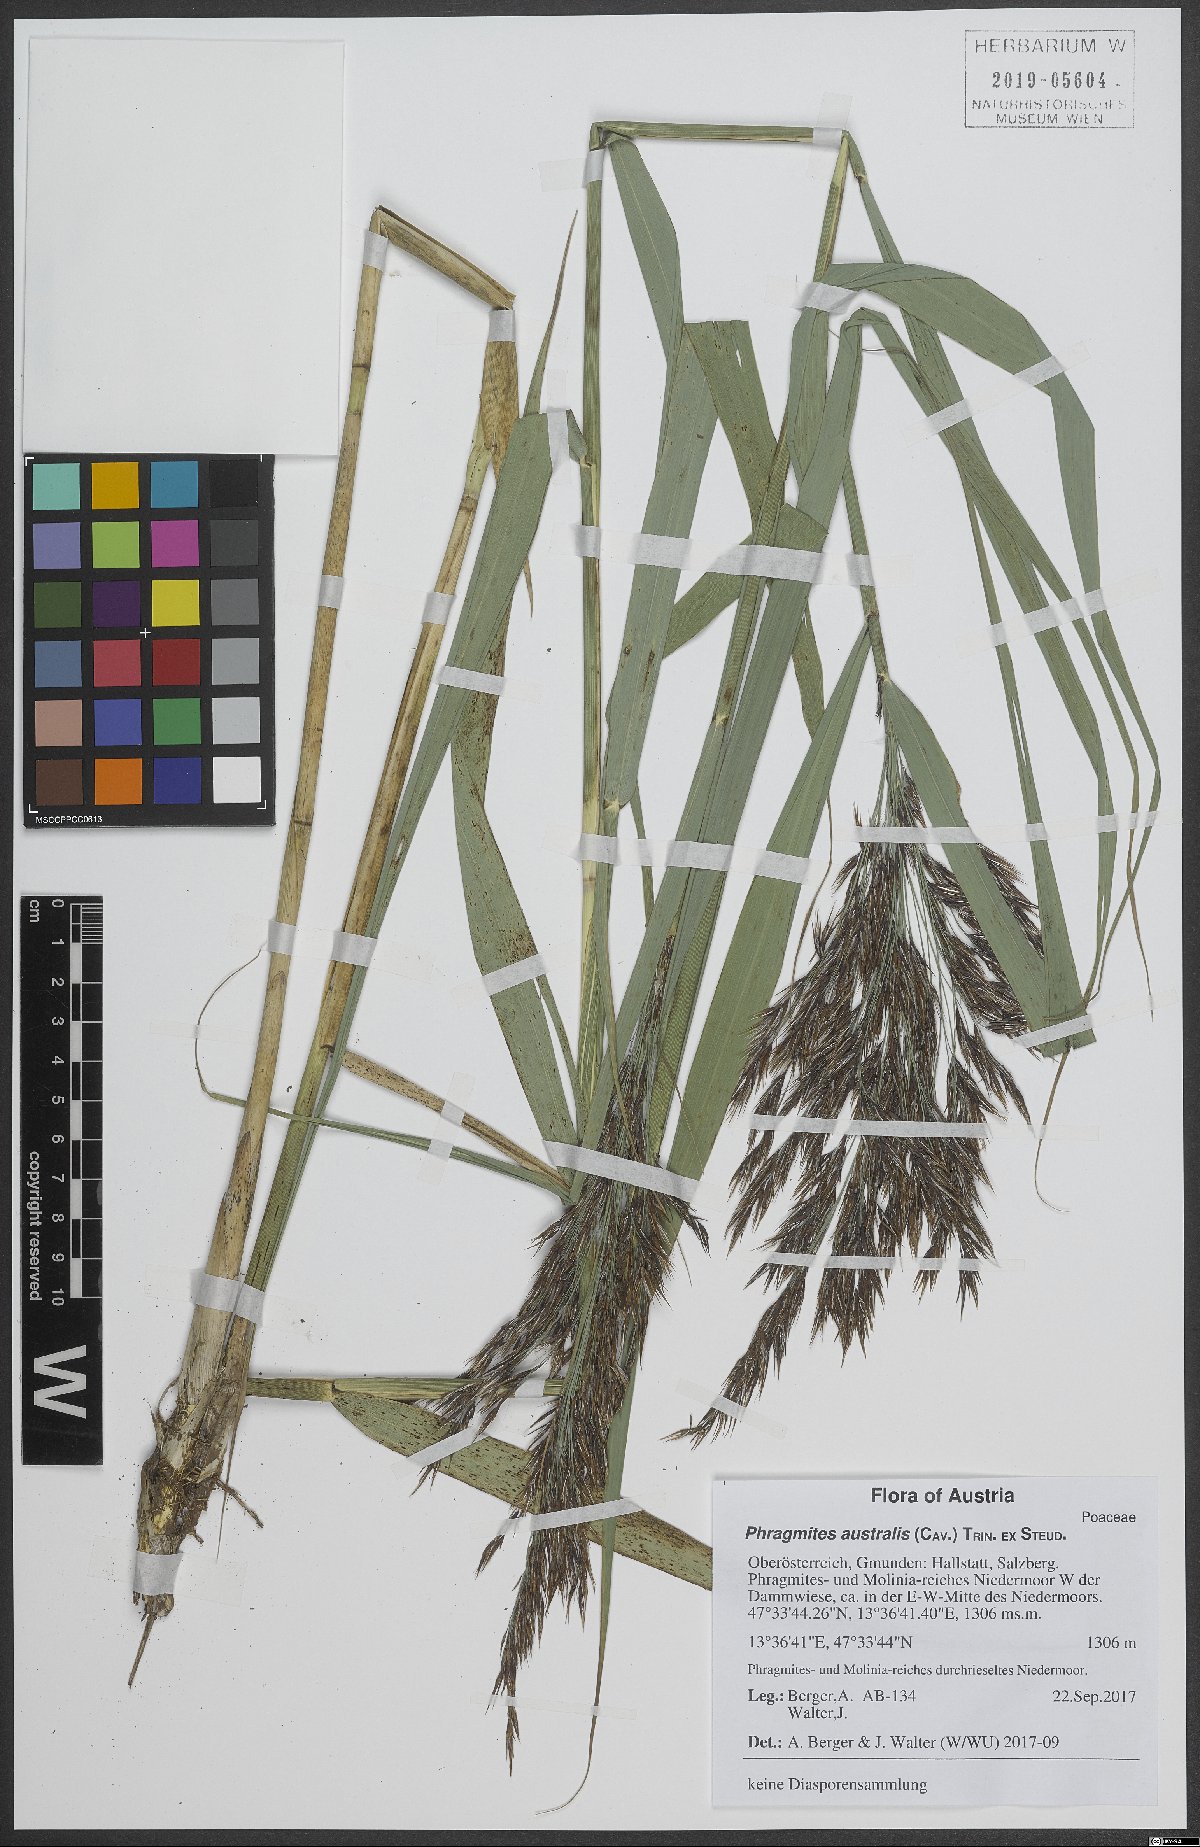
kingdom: Plantae
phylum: Tracheophyta
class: Liliopsida
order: Poales
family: Poaceae
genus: Phragmites
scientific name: Phragmites australis
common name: Common reed
